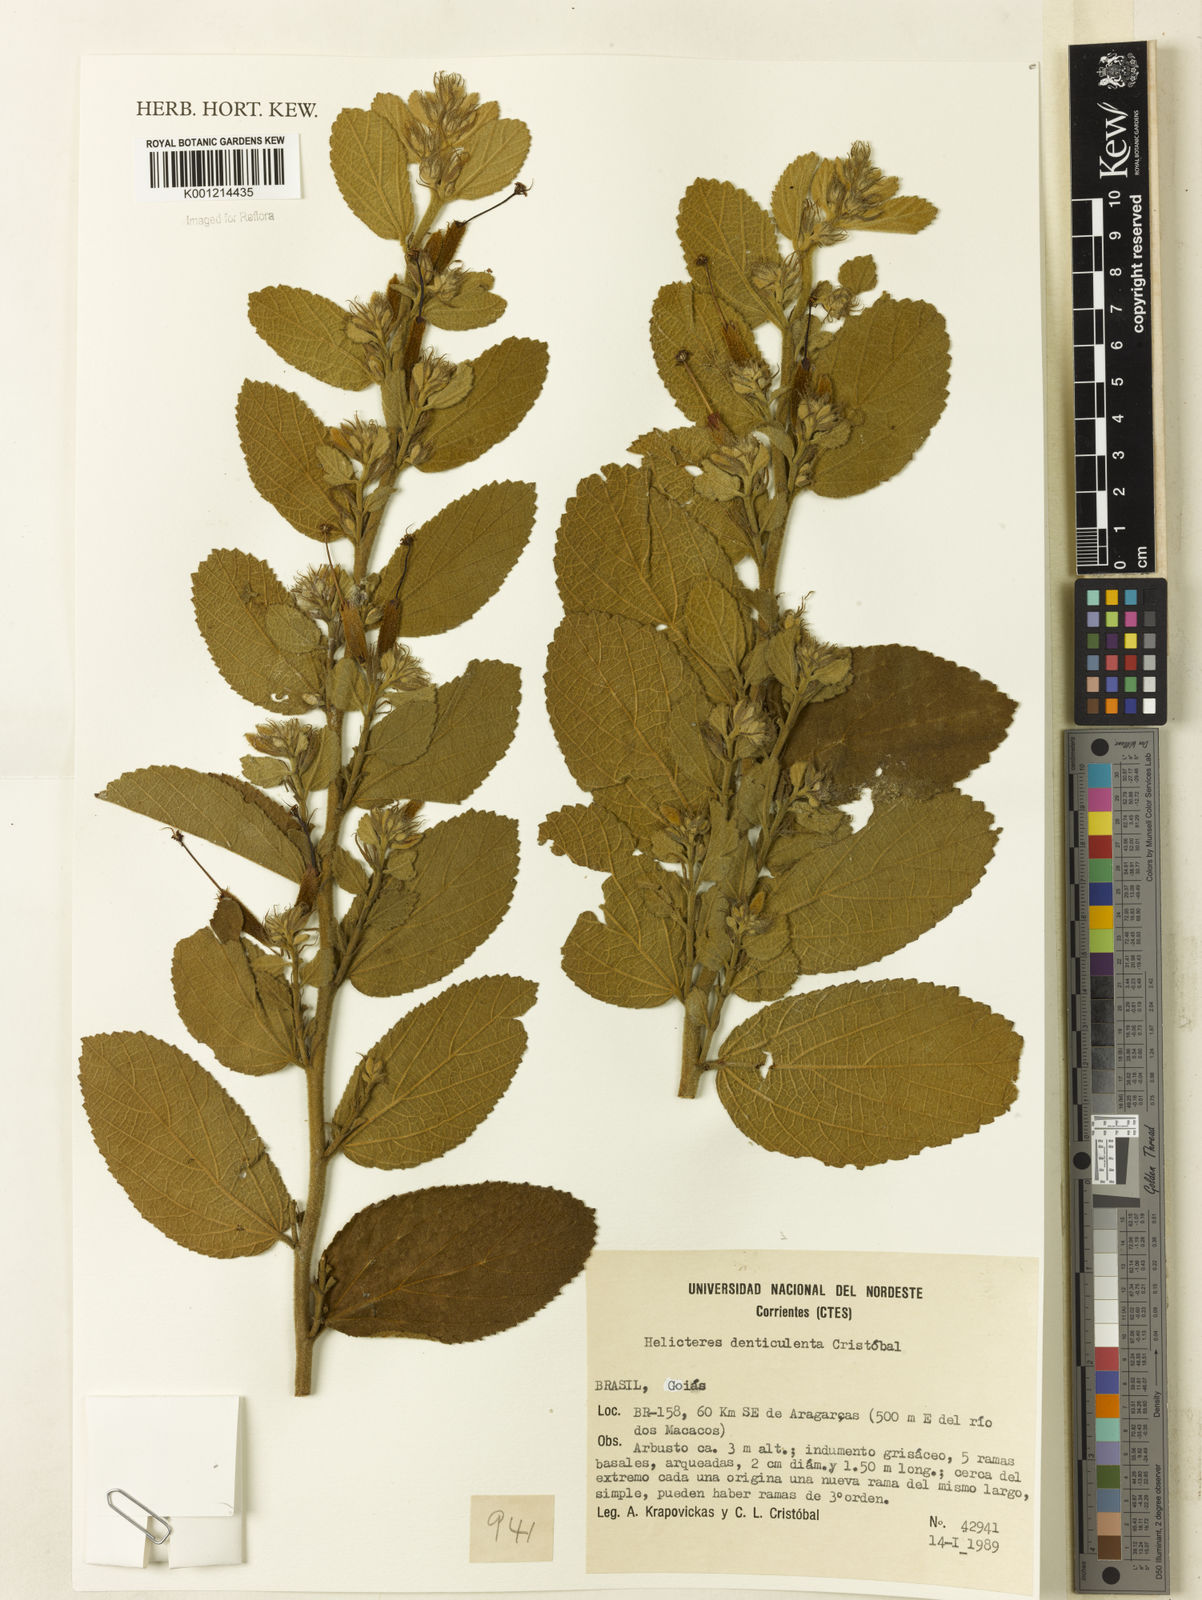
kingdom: Plantae
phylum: Tracheophyta
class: Magnoliopsida
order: Malvales
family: Malvaceae
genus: Helicteres
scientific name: Helicteres
